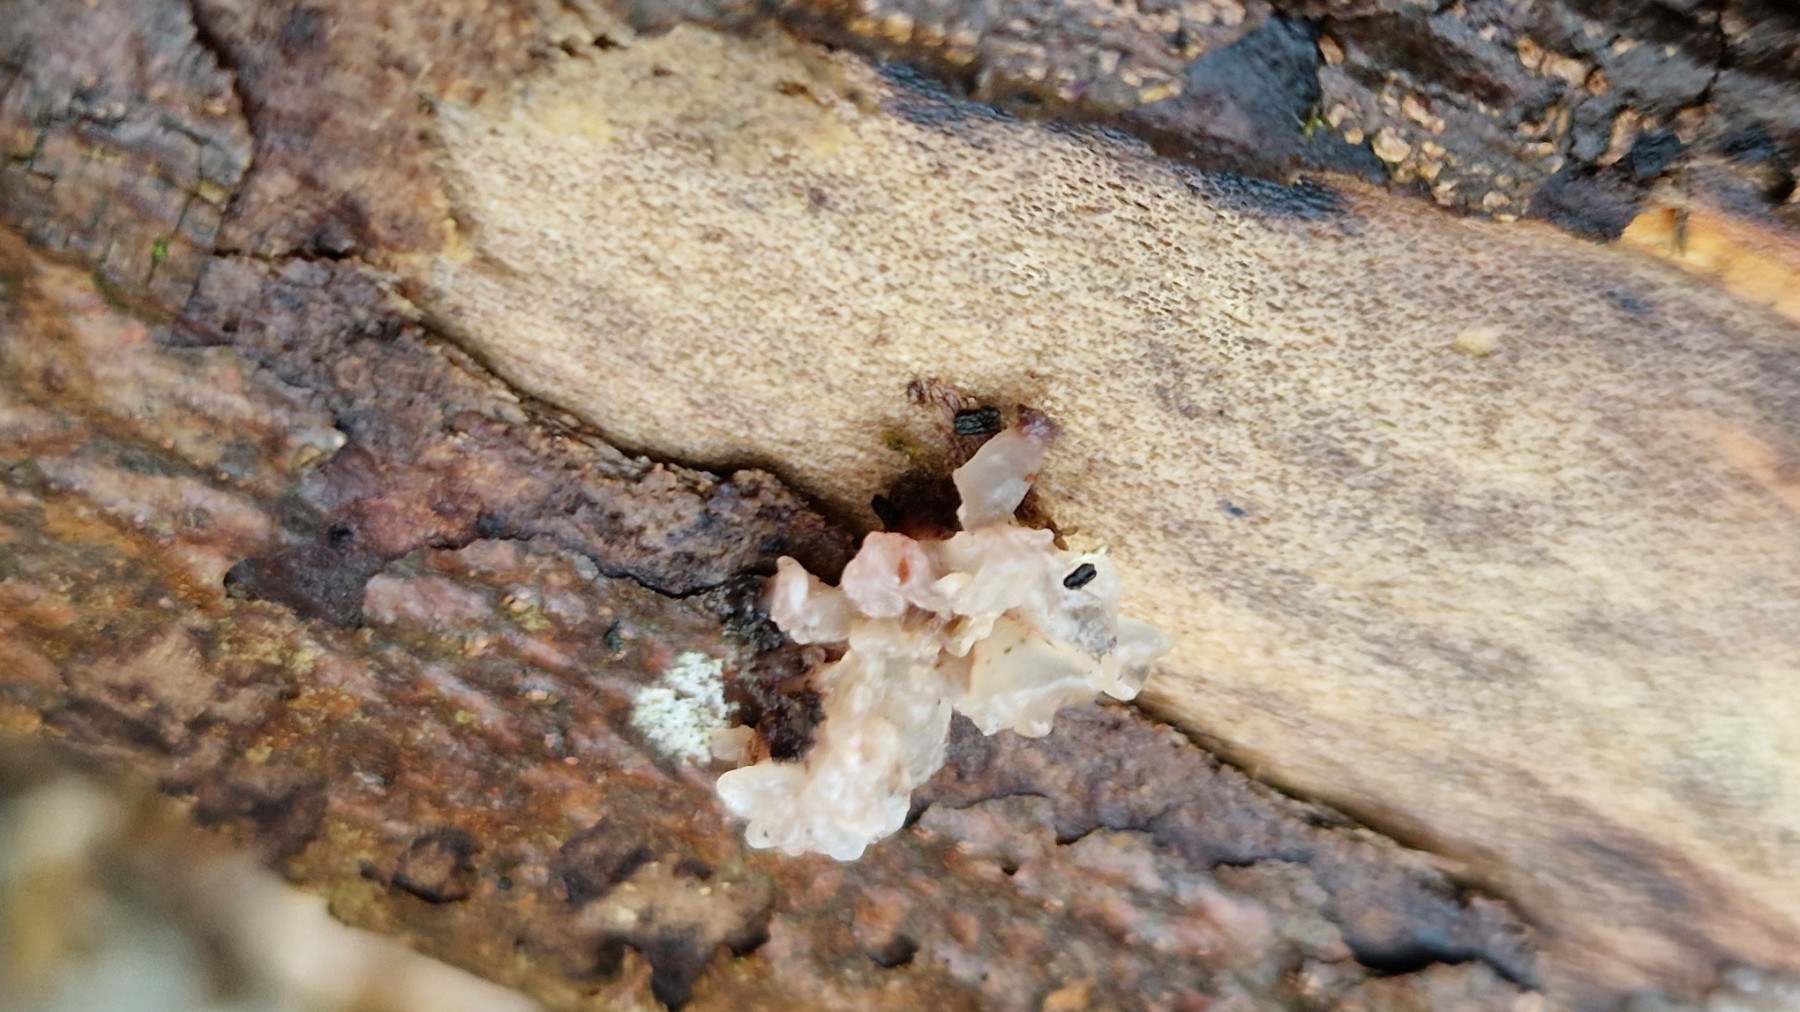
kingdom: Fungi
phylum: Basidiomycota
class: Agaricomycetes
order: Auriculariales
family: Hyaloriaceae
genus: Myxarium
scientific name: Myxarium
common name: bævretop
